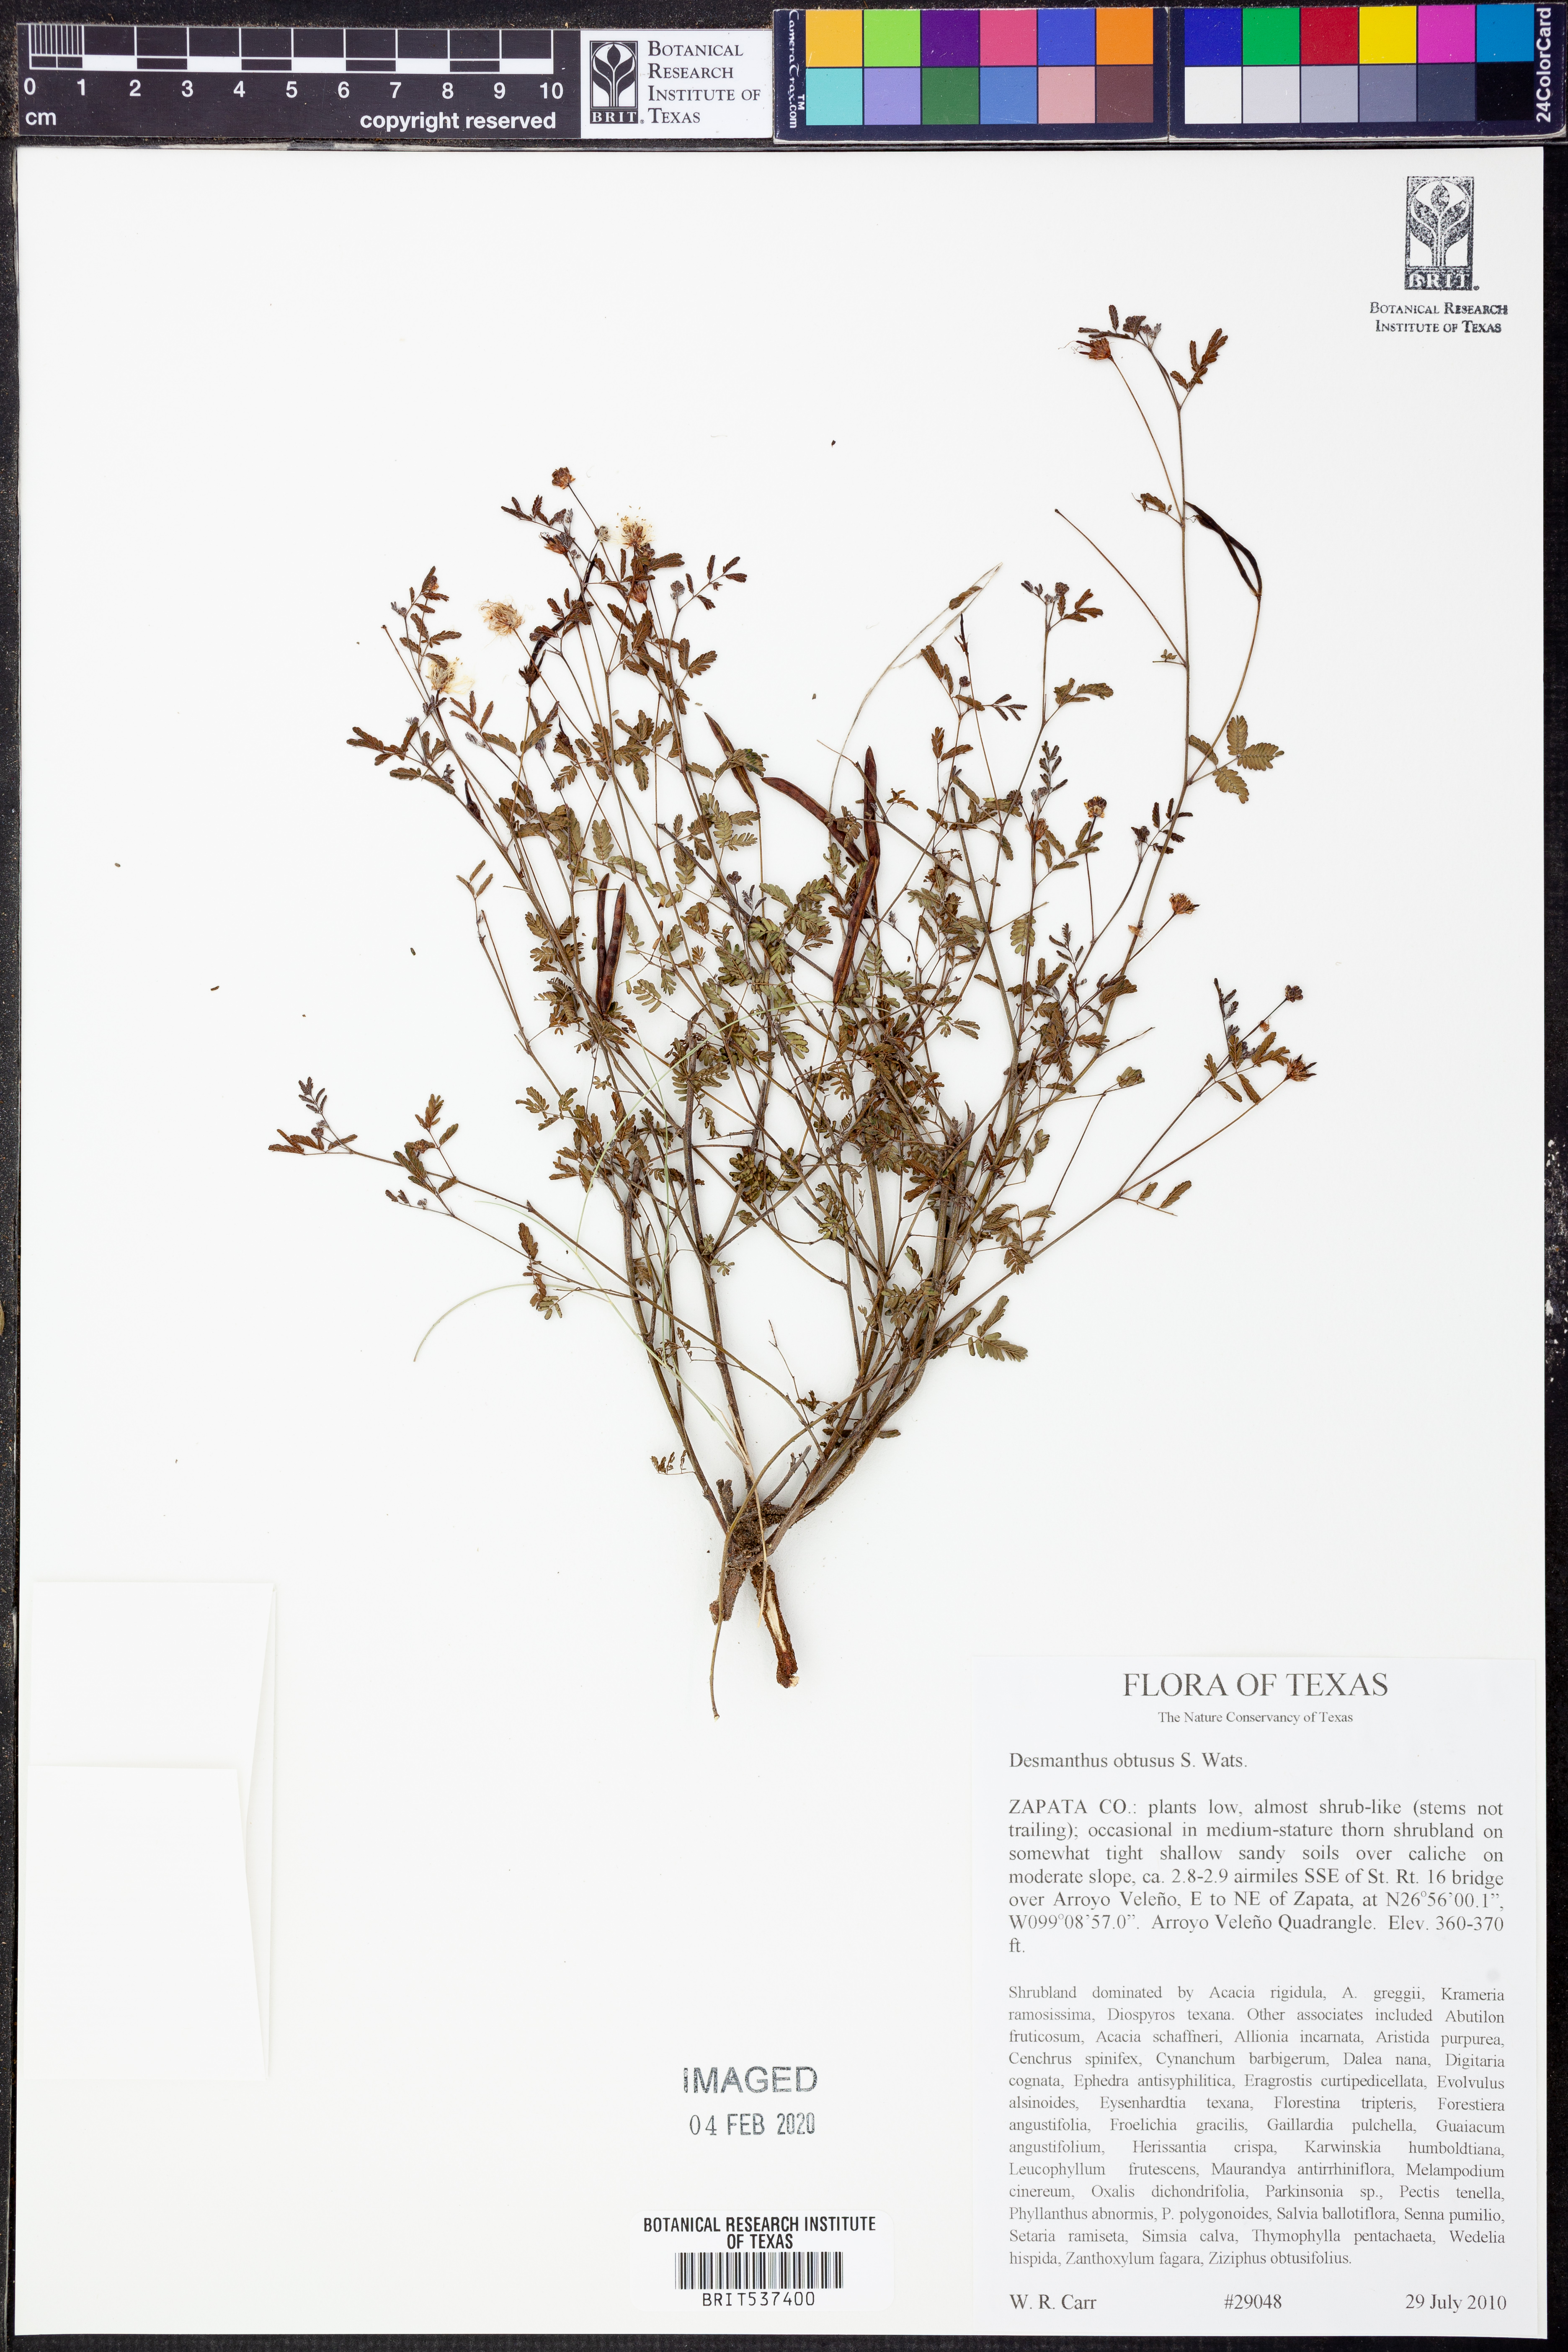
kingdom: Plantae
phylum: Tracheophyta
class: Magnoliopsida
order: Fabales
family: Fabaceae
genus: Desmanthus
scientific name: Desmanthus obtusus
